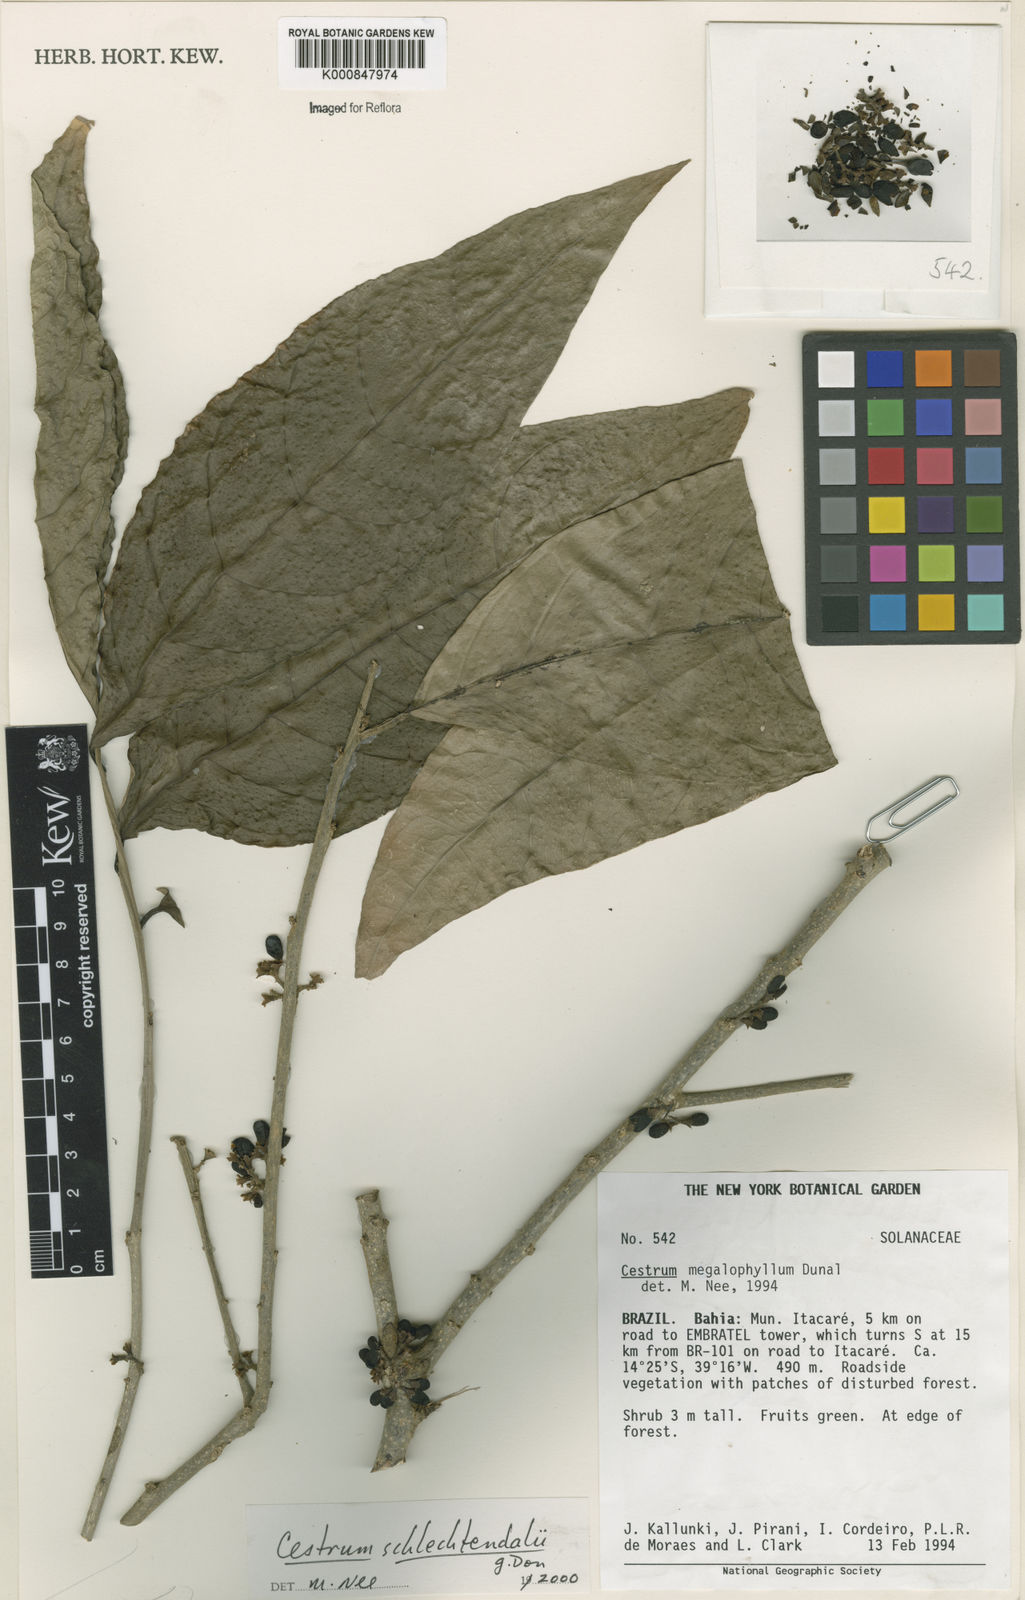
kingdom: Plantae
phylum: Tracheophyta
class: Magnoliopsida
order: Solanales
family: Solanaceae
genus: Cestrum
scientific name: Cestrum schlechtendalii
